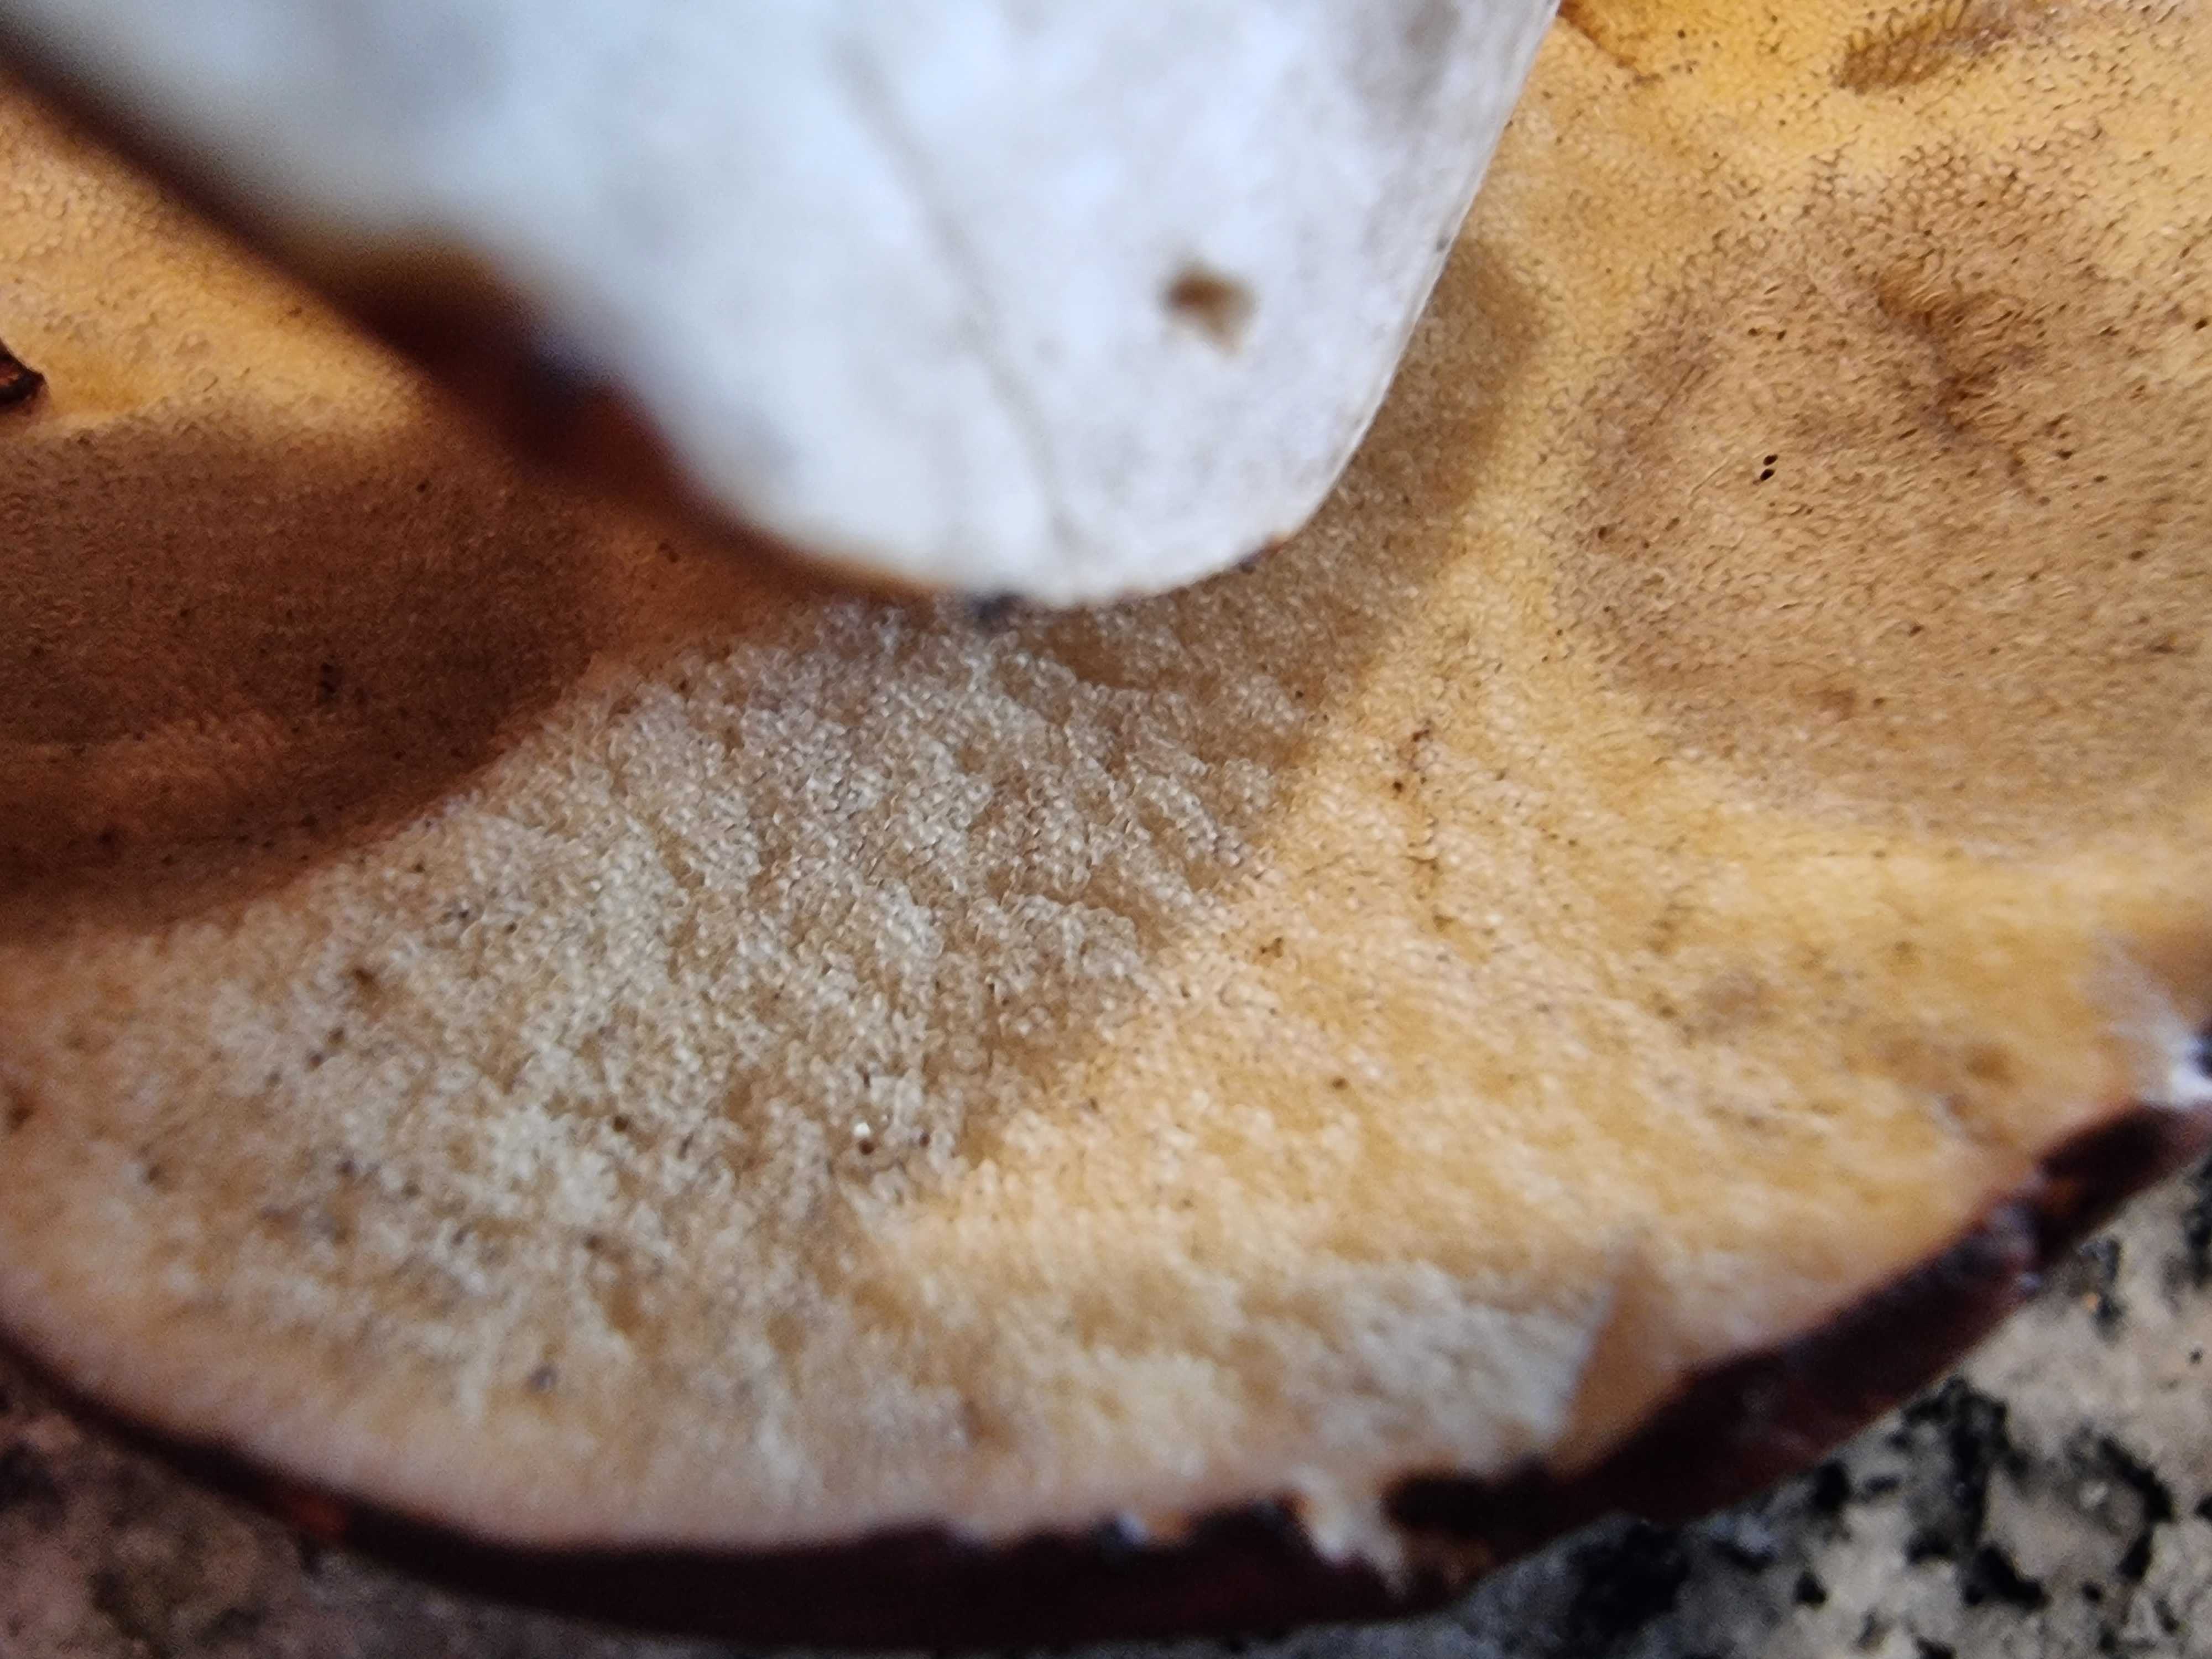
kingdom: Fungi
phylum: Basidiomycota
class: Agaricomycetes
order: Boletales
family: Boletaceae
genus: Imleria
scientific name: Imleria badia
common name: brunstokket rørhat
